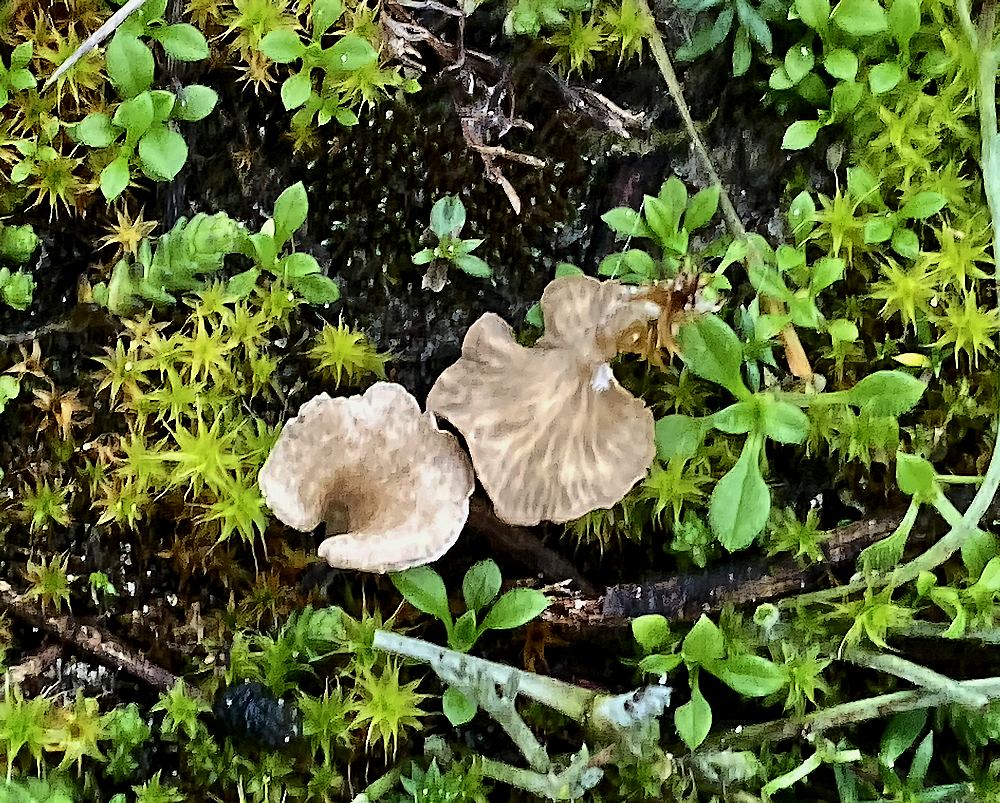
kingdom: Fungi
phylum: Basidiomycota
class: Agaricomycetes
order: Agaricales
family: Hygrophoraceae
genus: Arrhenia
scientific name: Arrhenia spathulata
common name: skæv fontænehat
